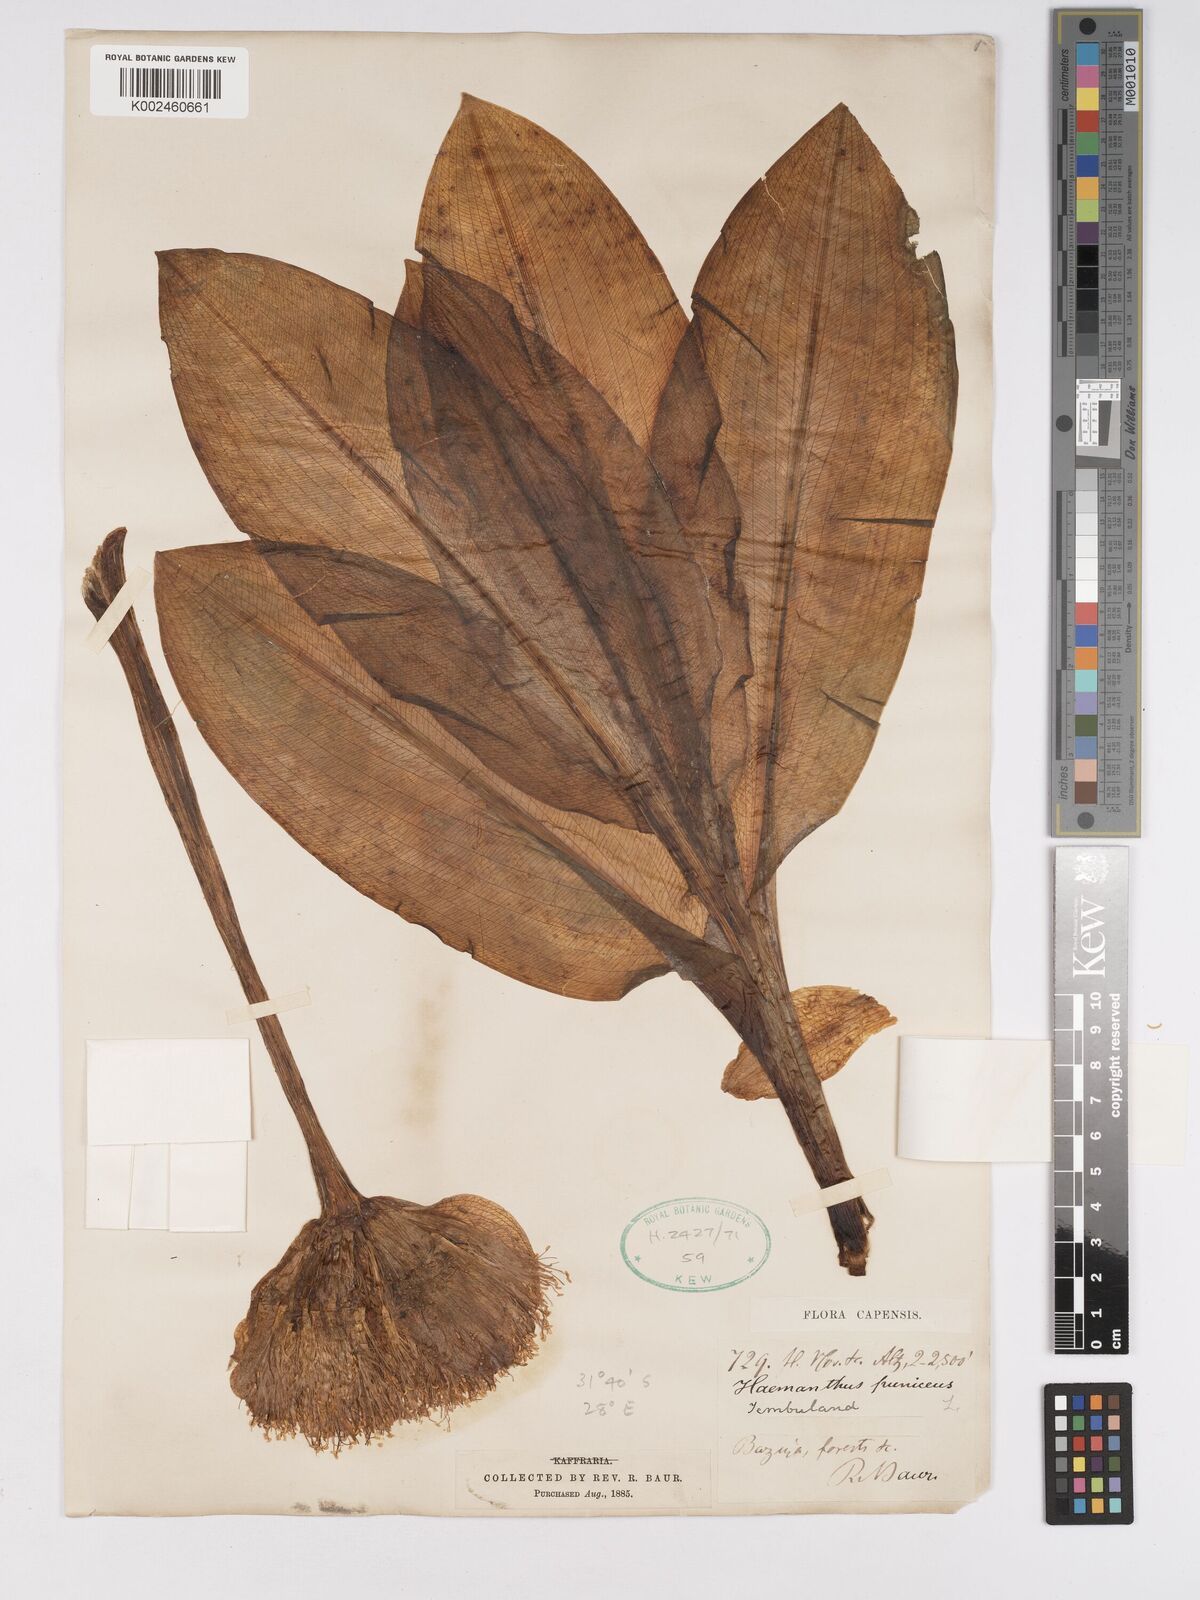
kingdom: Plantae
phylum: Tracheophyta
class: Liliopsida
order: Asparagales
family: Amaryllidaceae
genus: Scadoxus
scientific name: Scadoxus puniceus
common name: Royal-paintbrush
